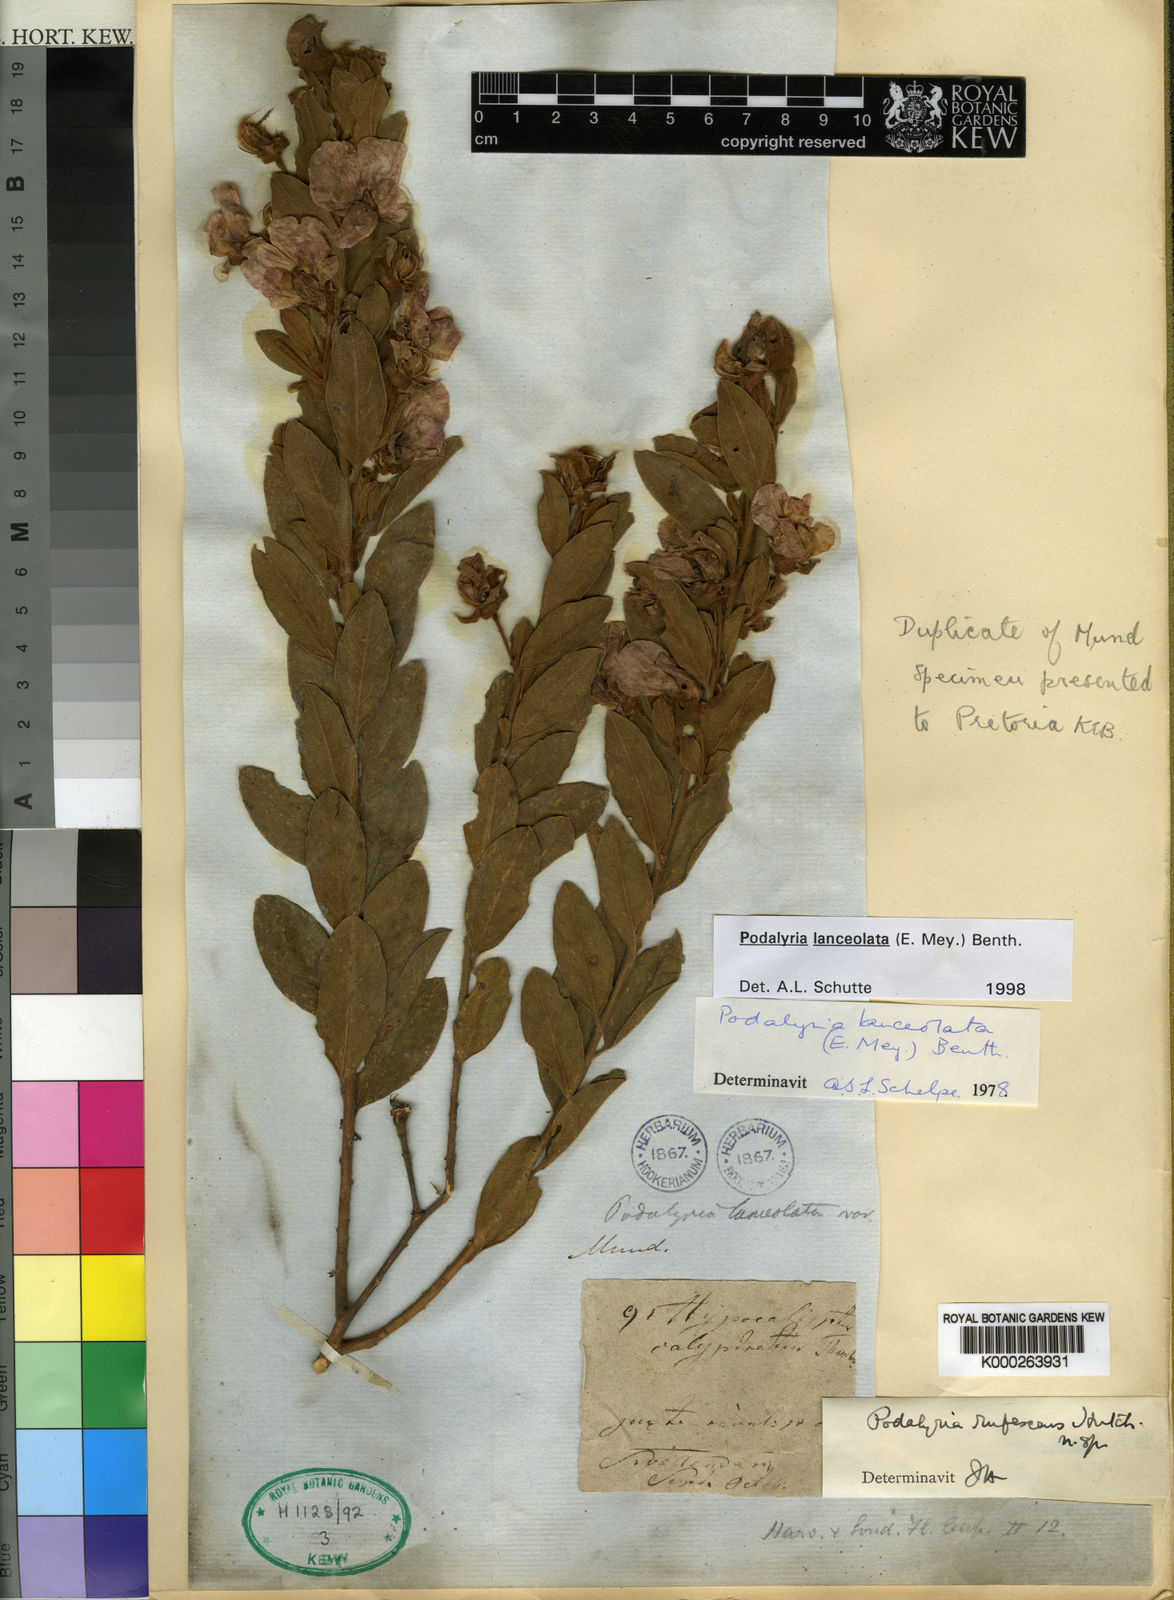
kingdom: Plantae
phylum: Tracheophyta
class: Magnoliopsida
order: Fabales
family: Fabaceae
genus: Podalyria
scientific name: Podalyria lanceolata
